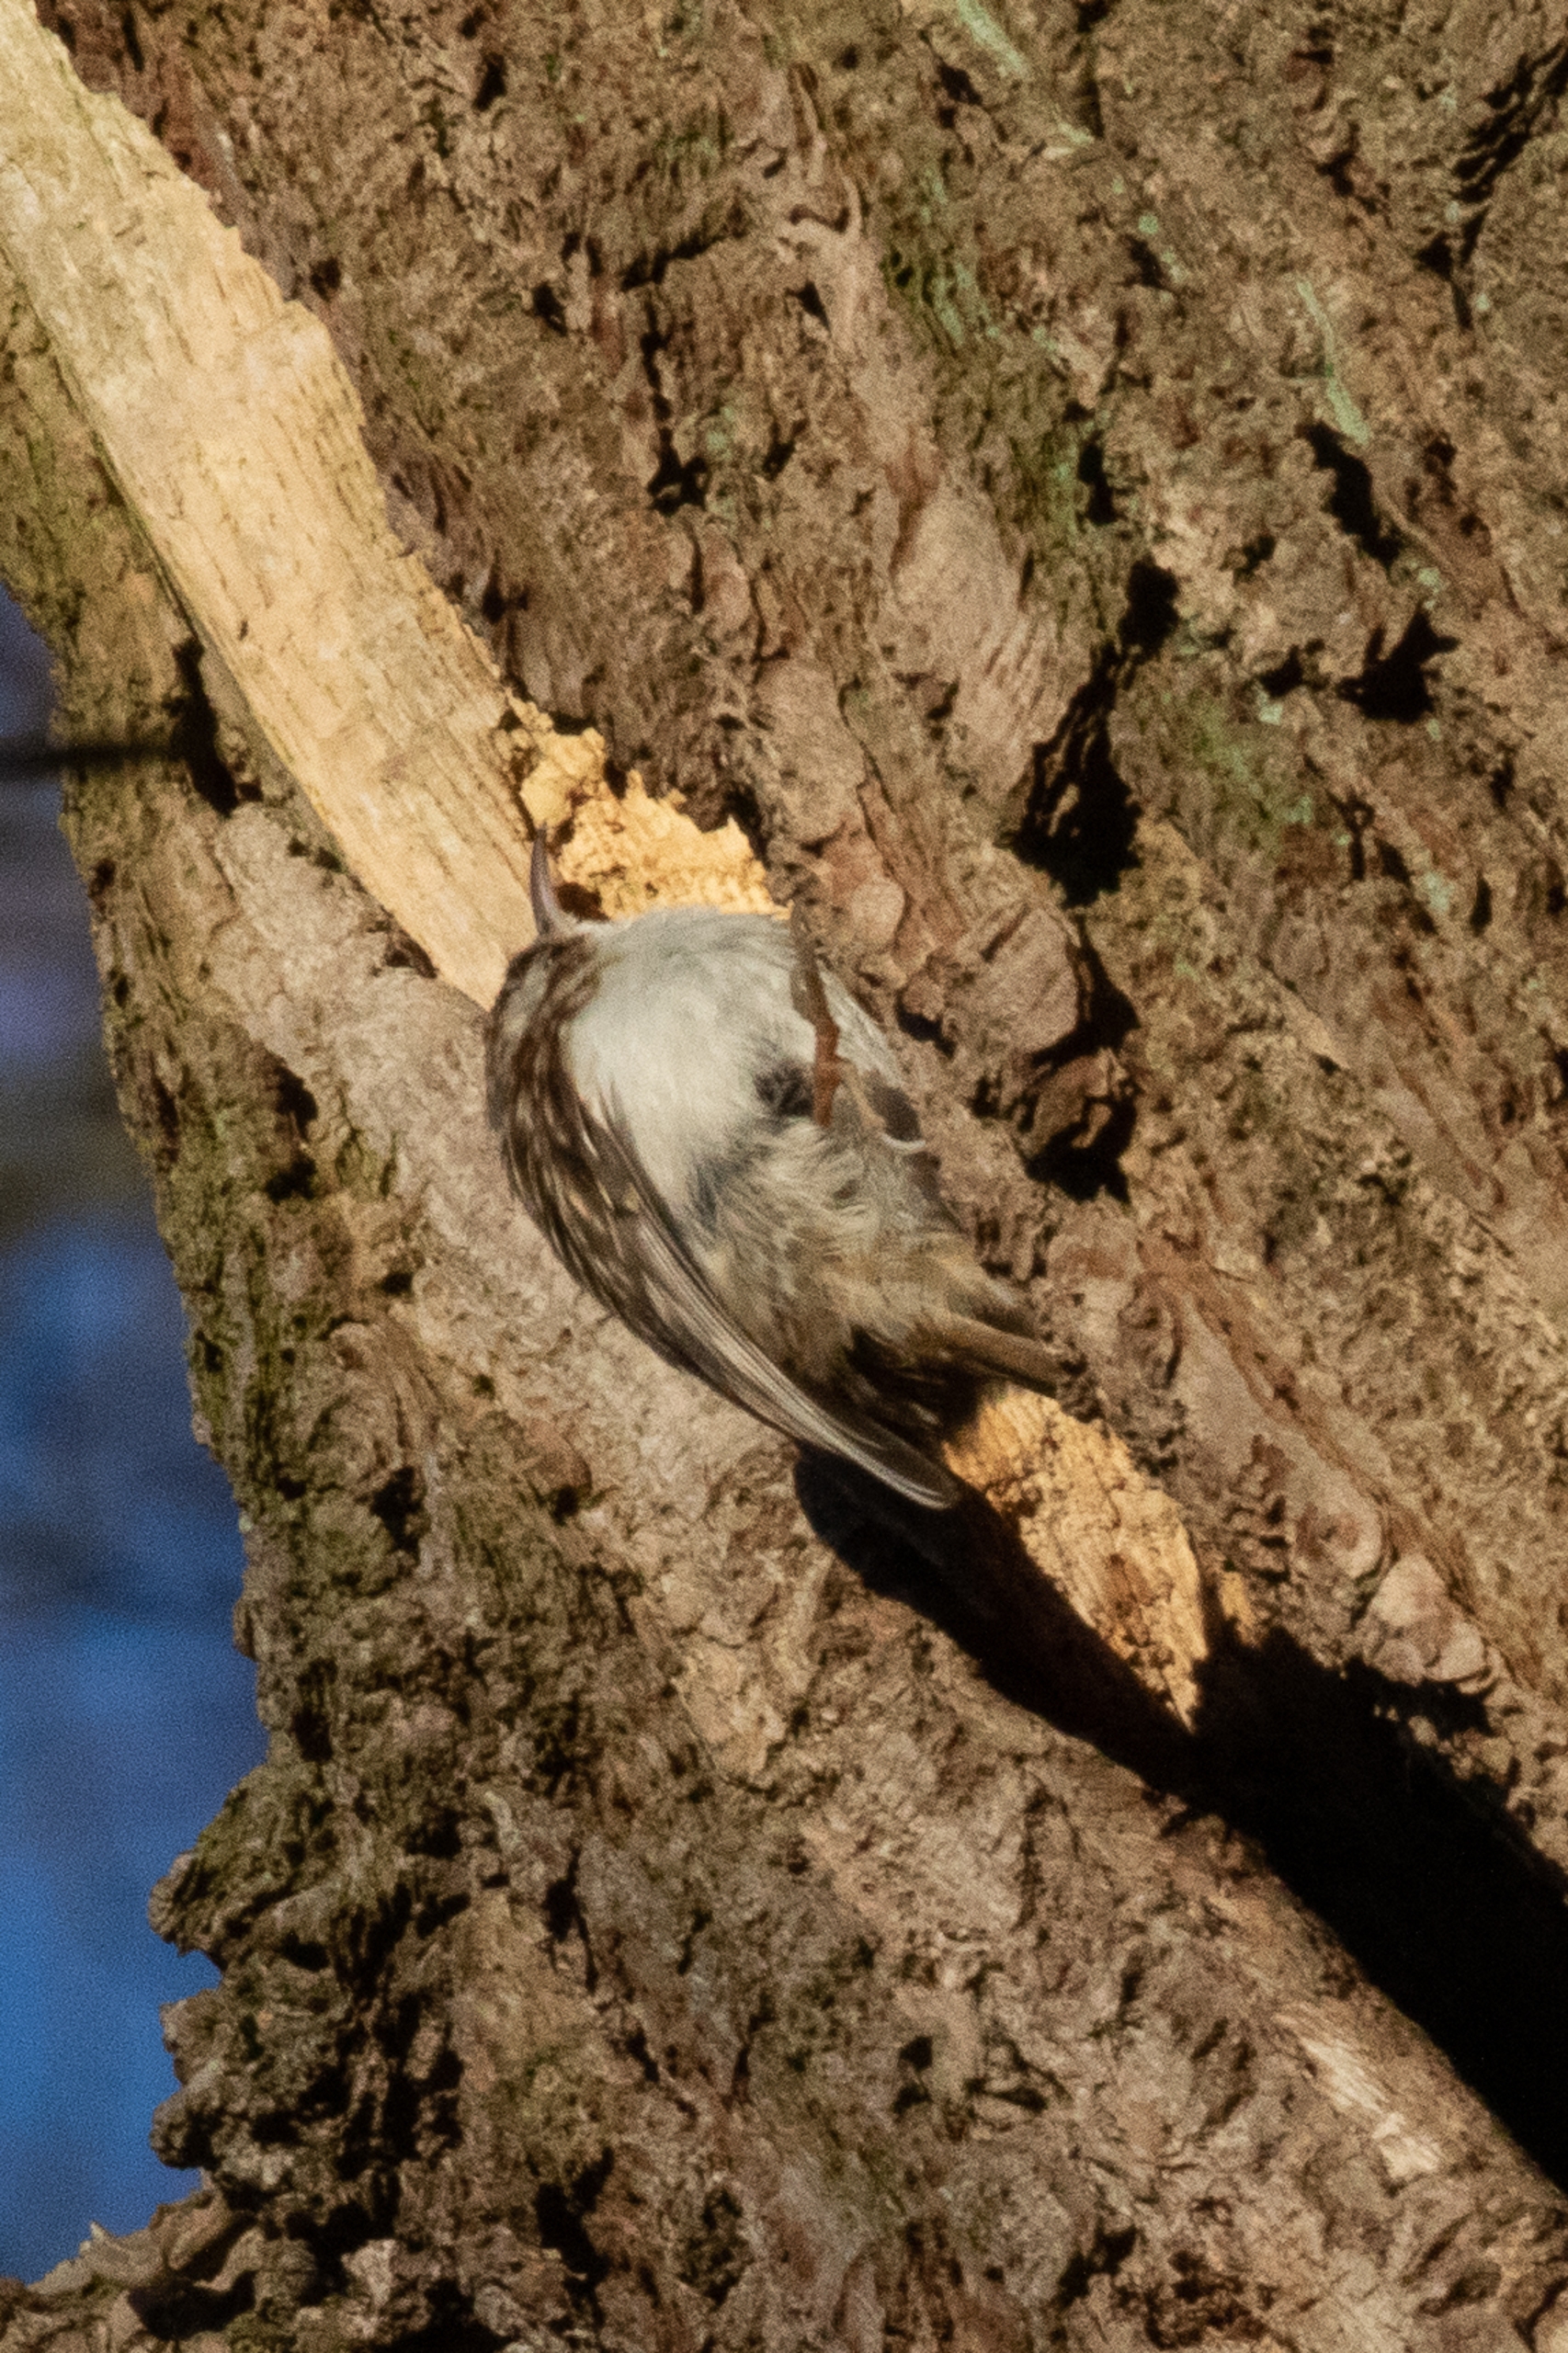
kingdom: Animalia
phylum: Chordata
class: Aves
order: Passeriformes
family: Certhiidae
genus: Certhia
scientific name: Certhia brachydactyla
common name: Korttået træløber
